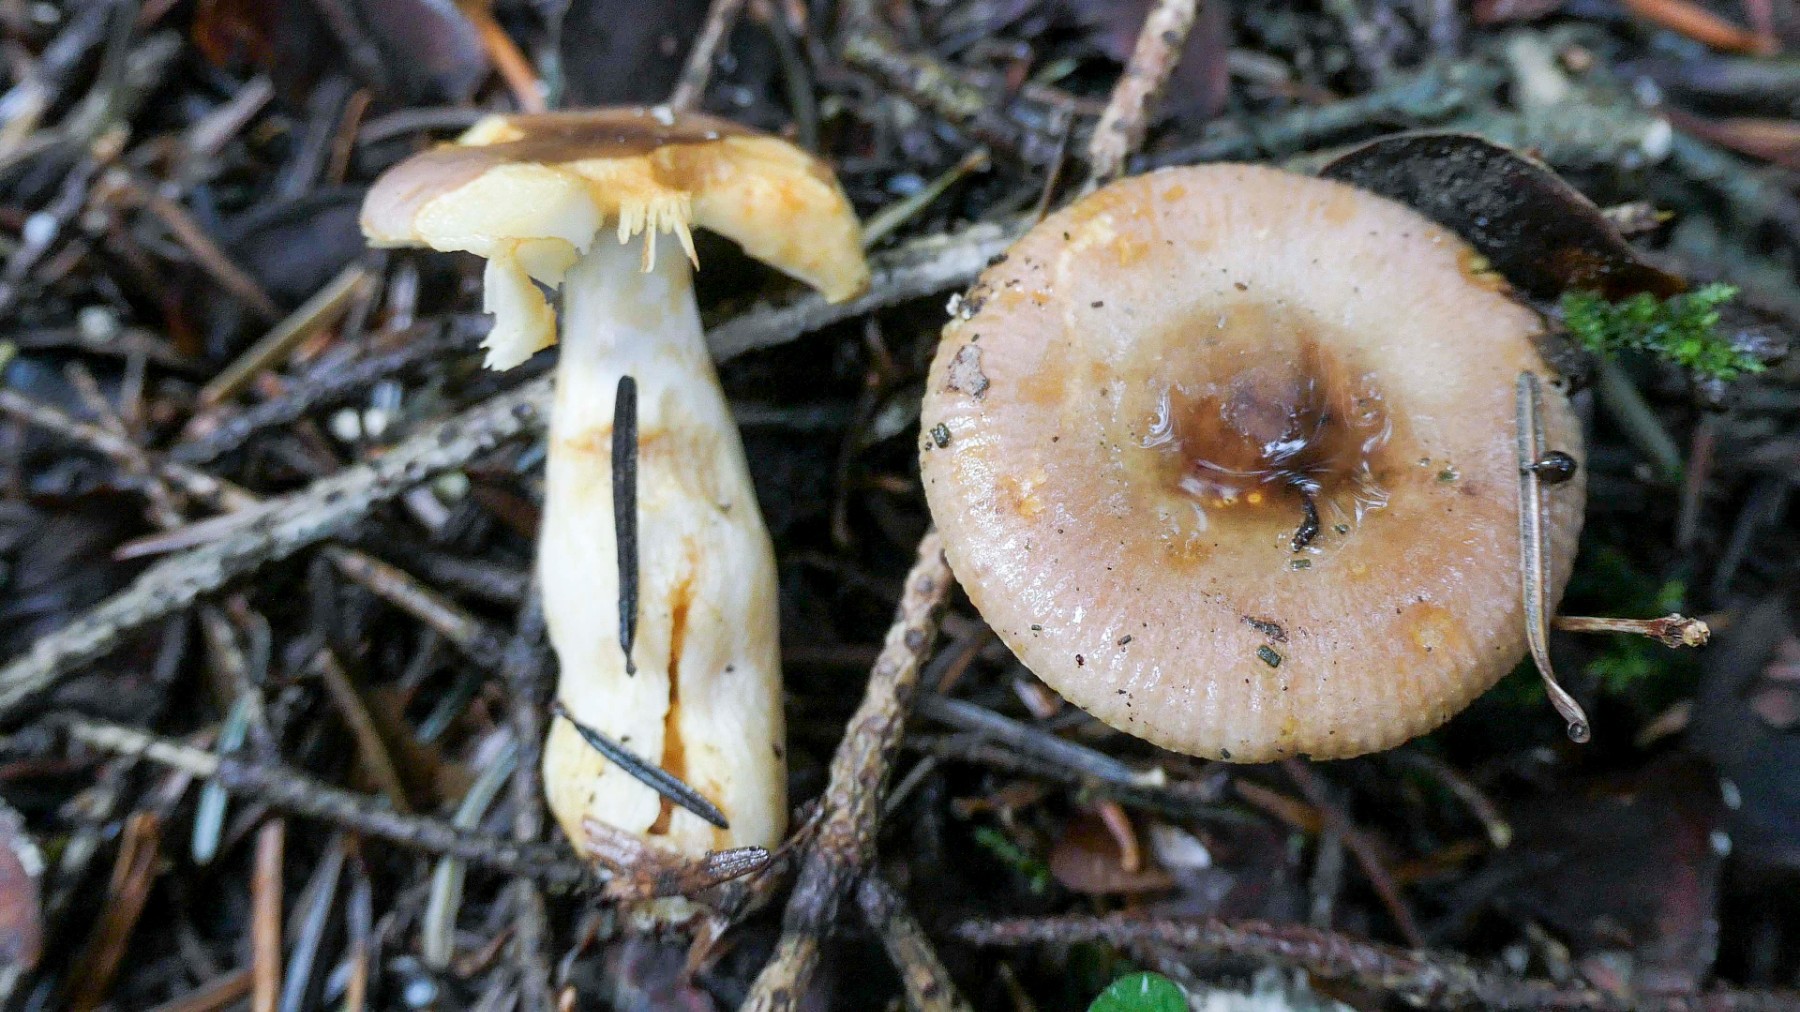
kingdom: Fungi
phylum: Basidiomycota
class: Agaricomycetes
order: Russulales
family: Russulaceae
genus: Russula
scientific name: Russula puellaris
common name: gulstokket skørhat
